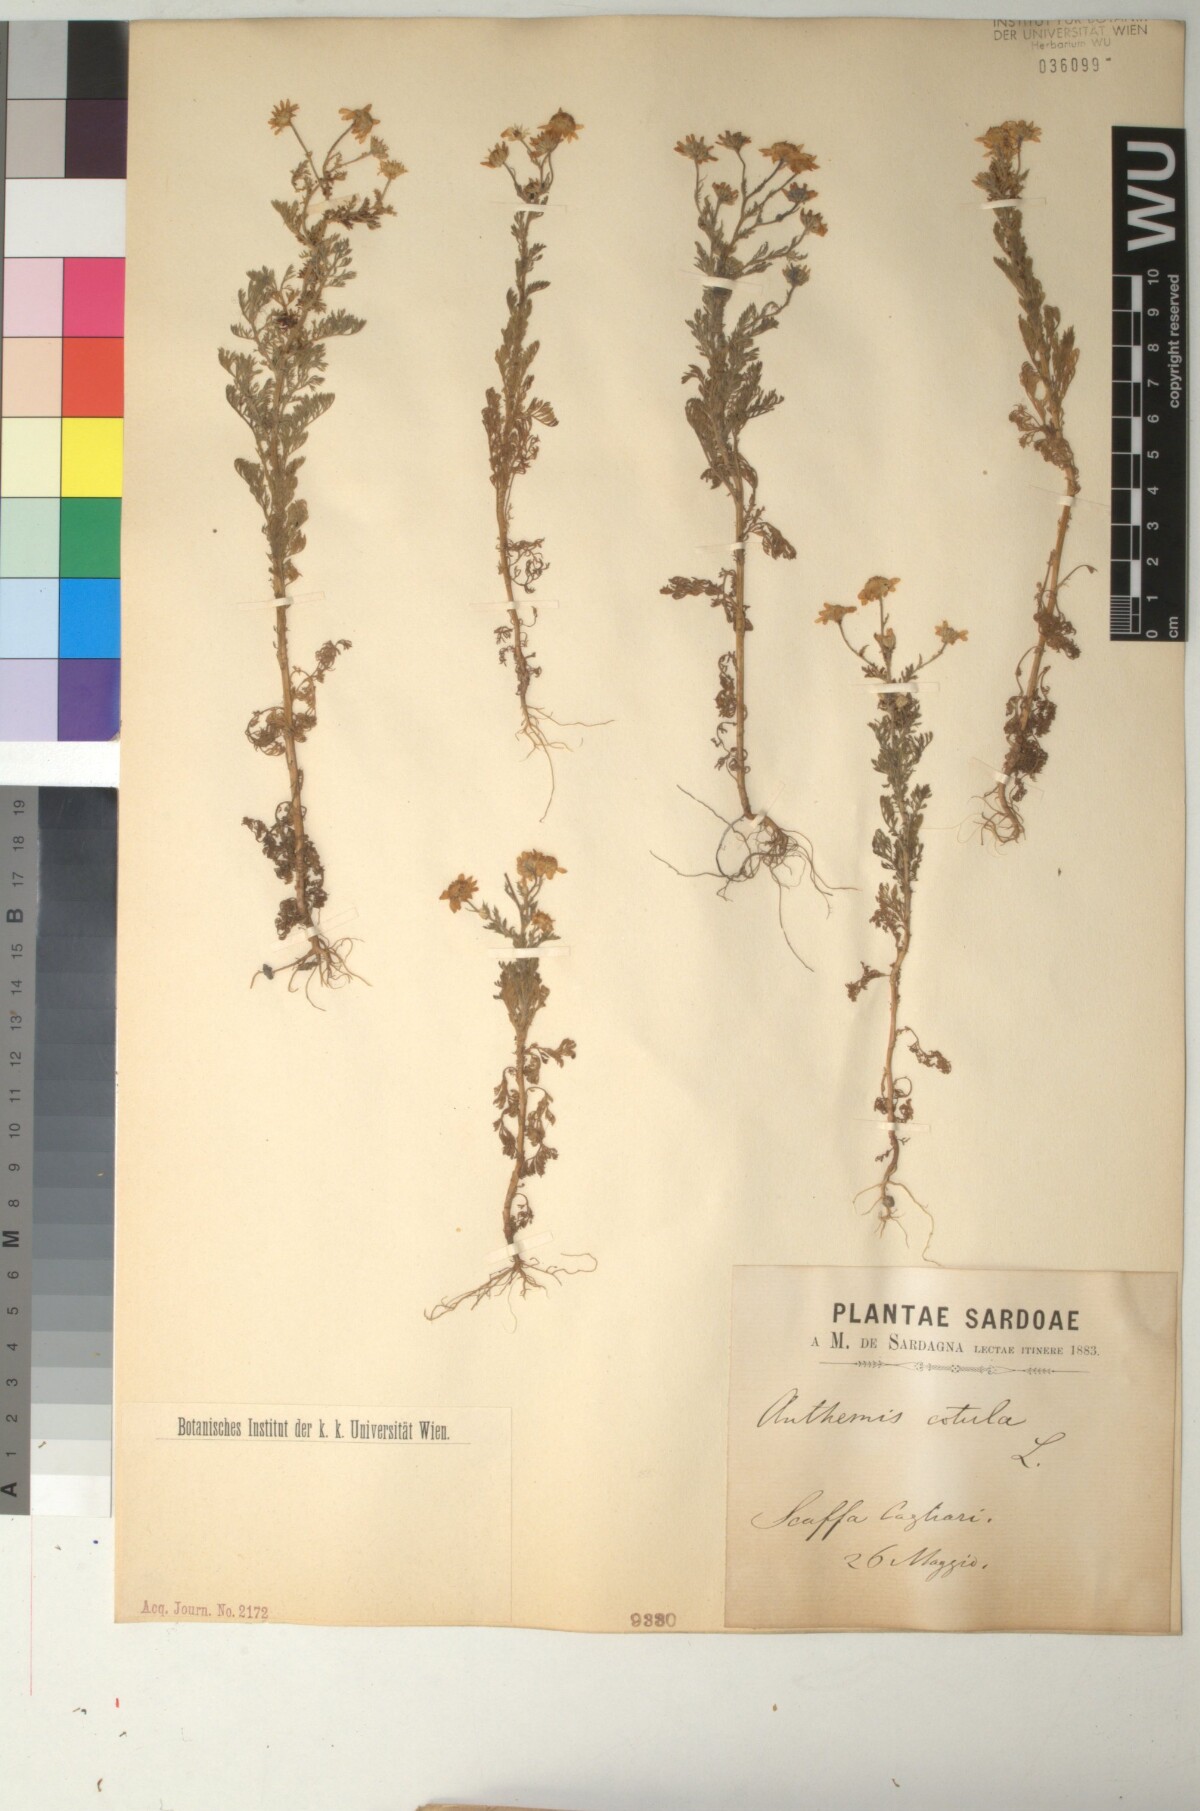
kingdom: Plantae
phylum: Tracheophyta
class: Magnoliopsida
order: Asterales
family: Asteraceae
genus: Anthemis
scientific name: Anthemis cotula
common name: Stinking chamomile
